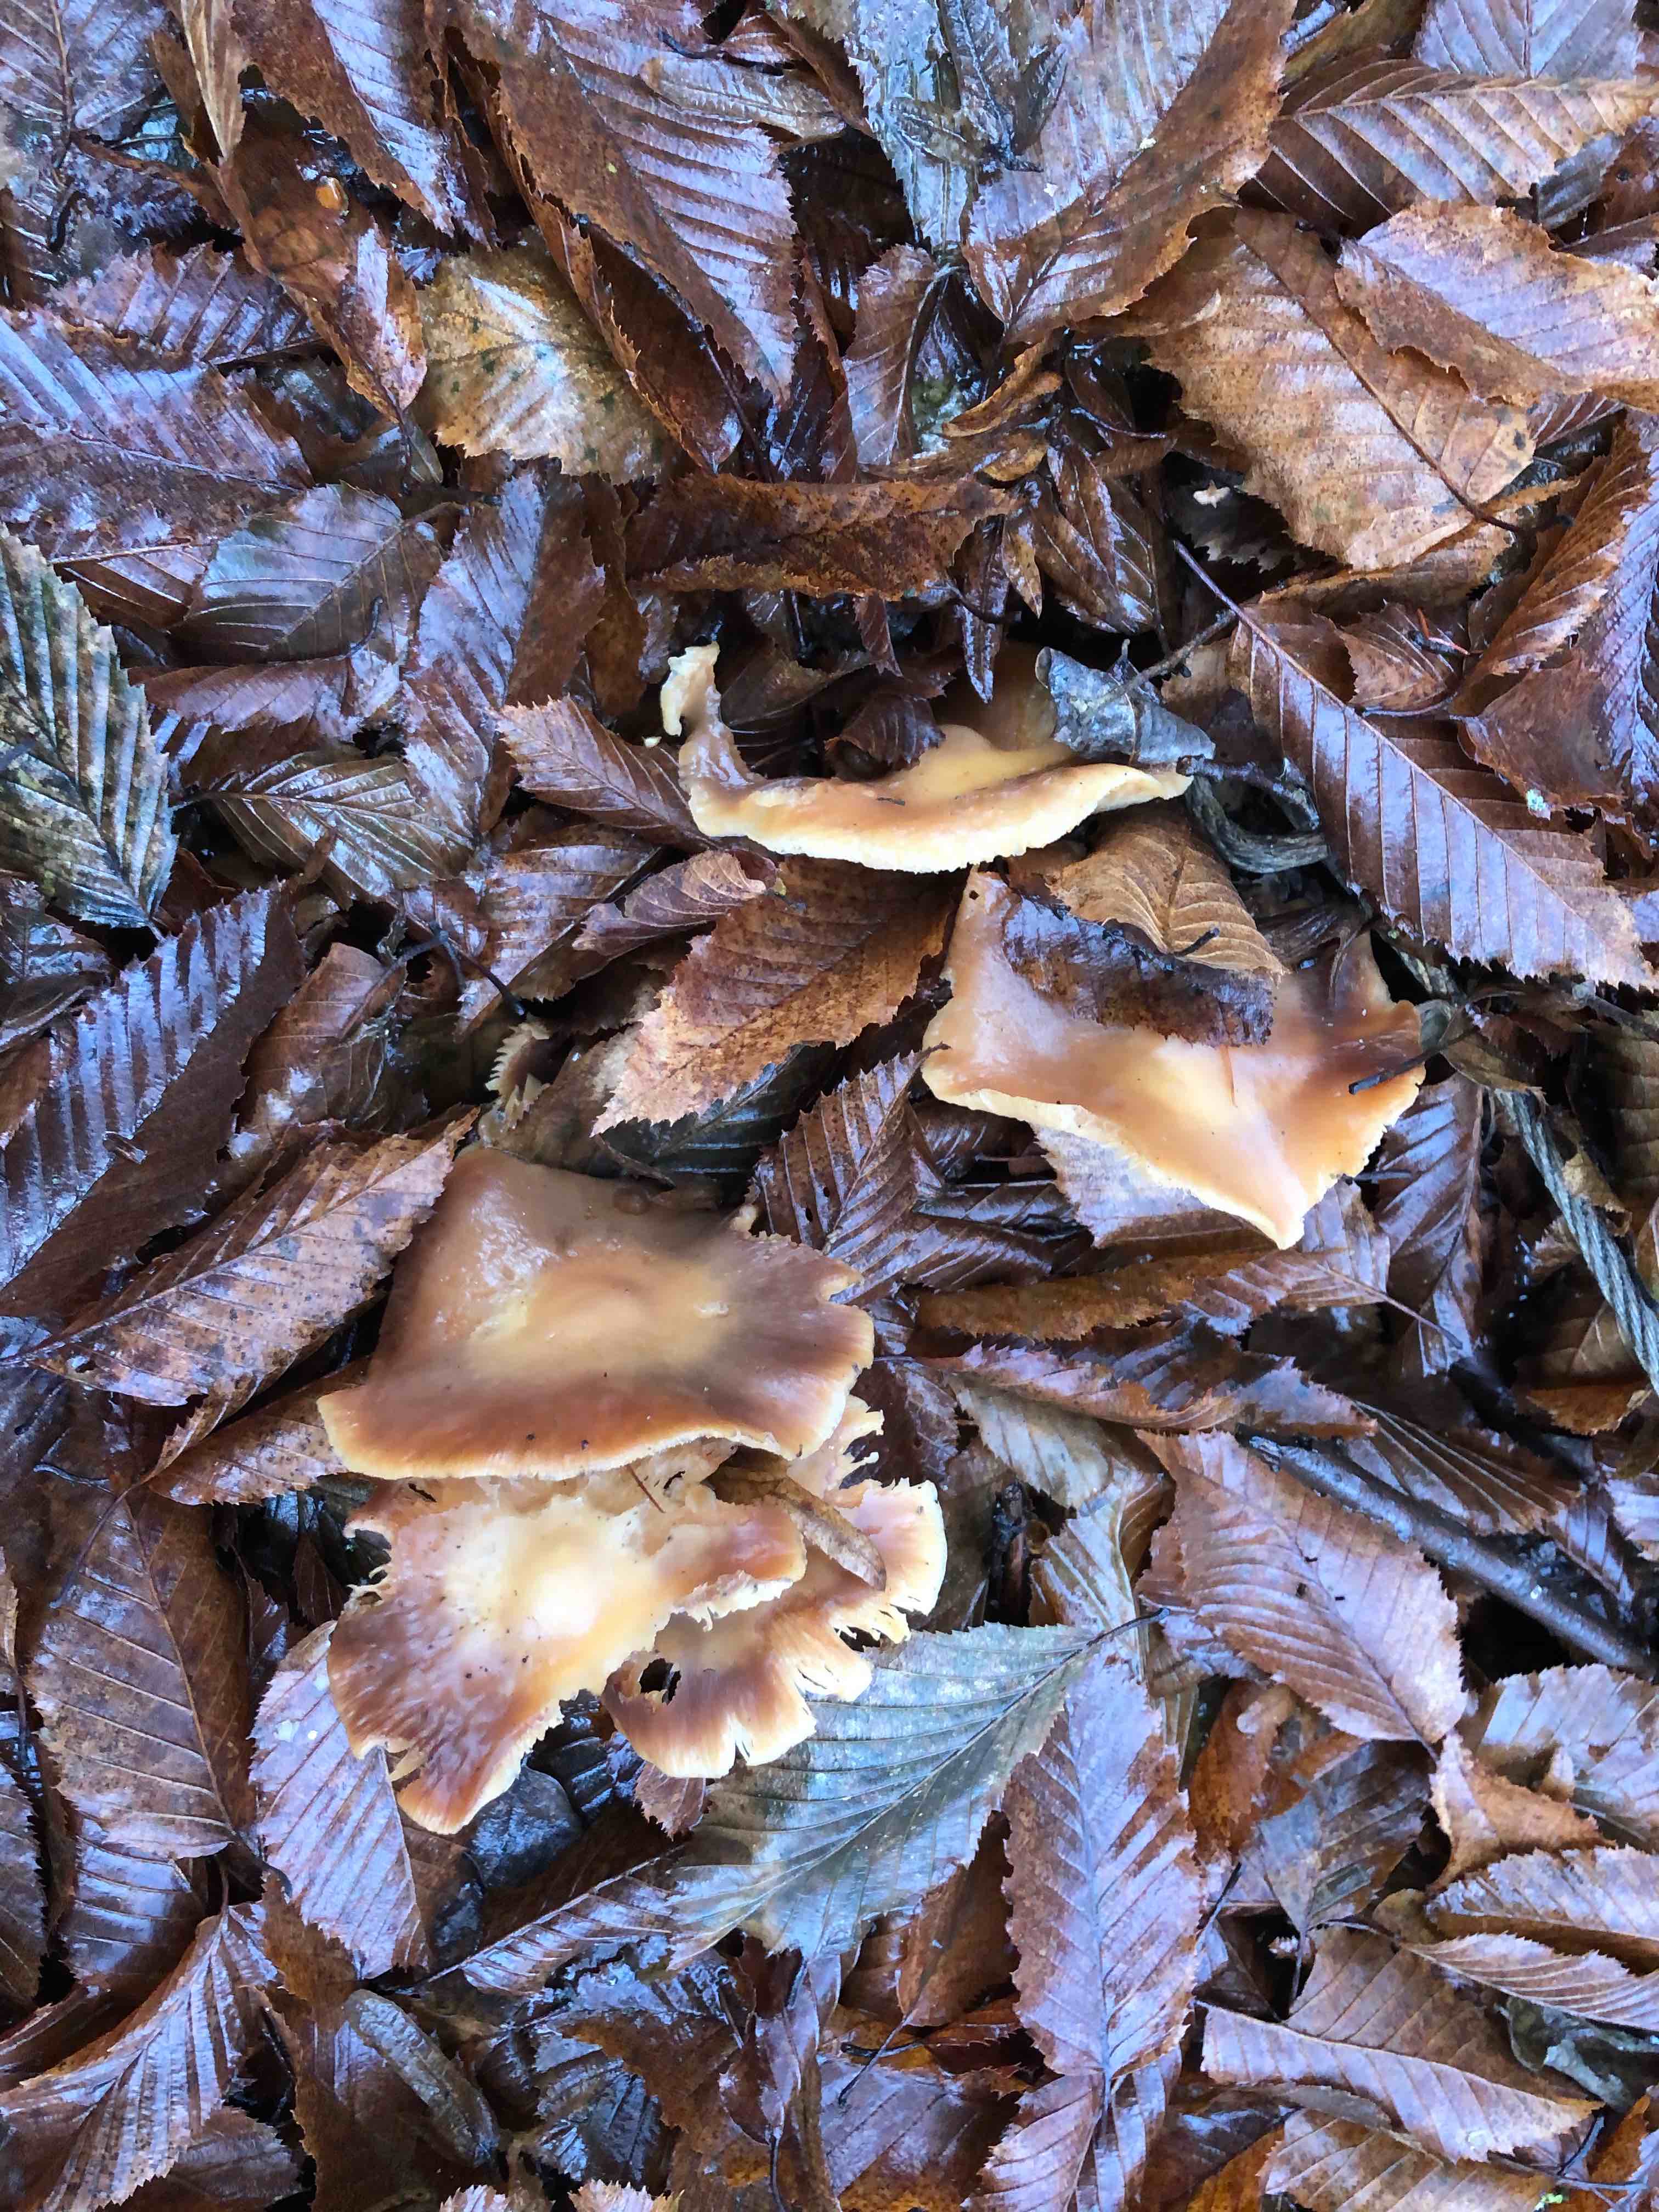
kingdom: Fungi
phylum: Basidiomycota
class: Agaricomycetes
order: Agaricales
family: Omphalotaceae
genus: Rhodocollybia
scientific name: Rhodocollybia
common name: fladhat
